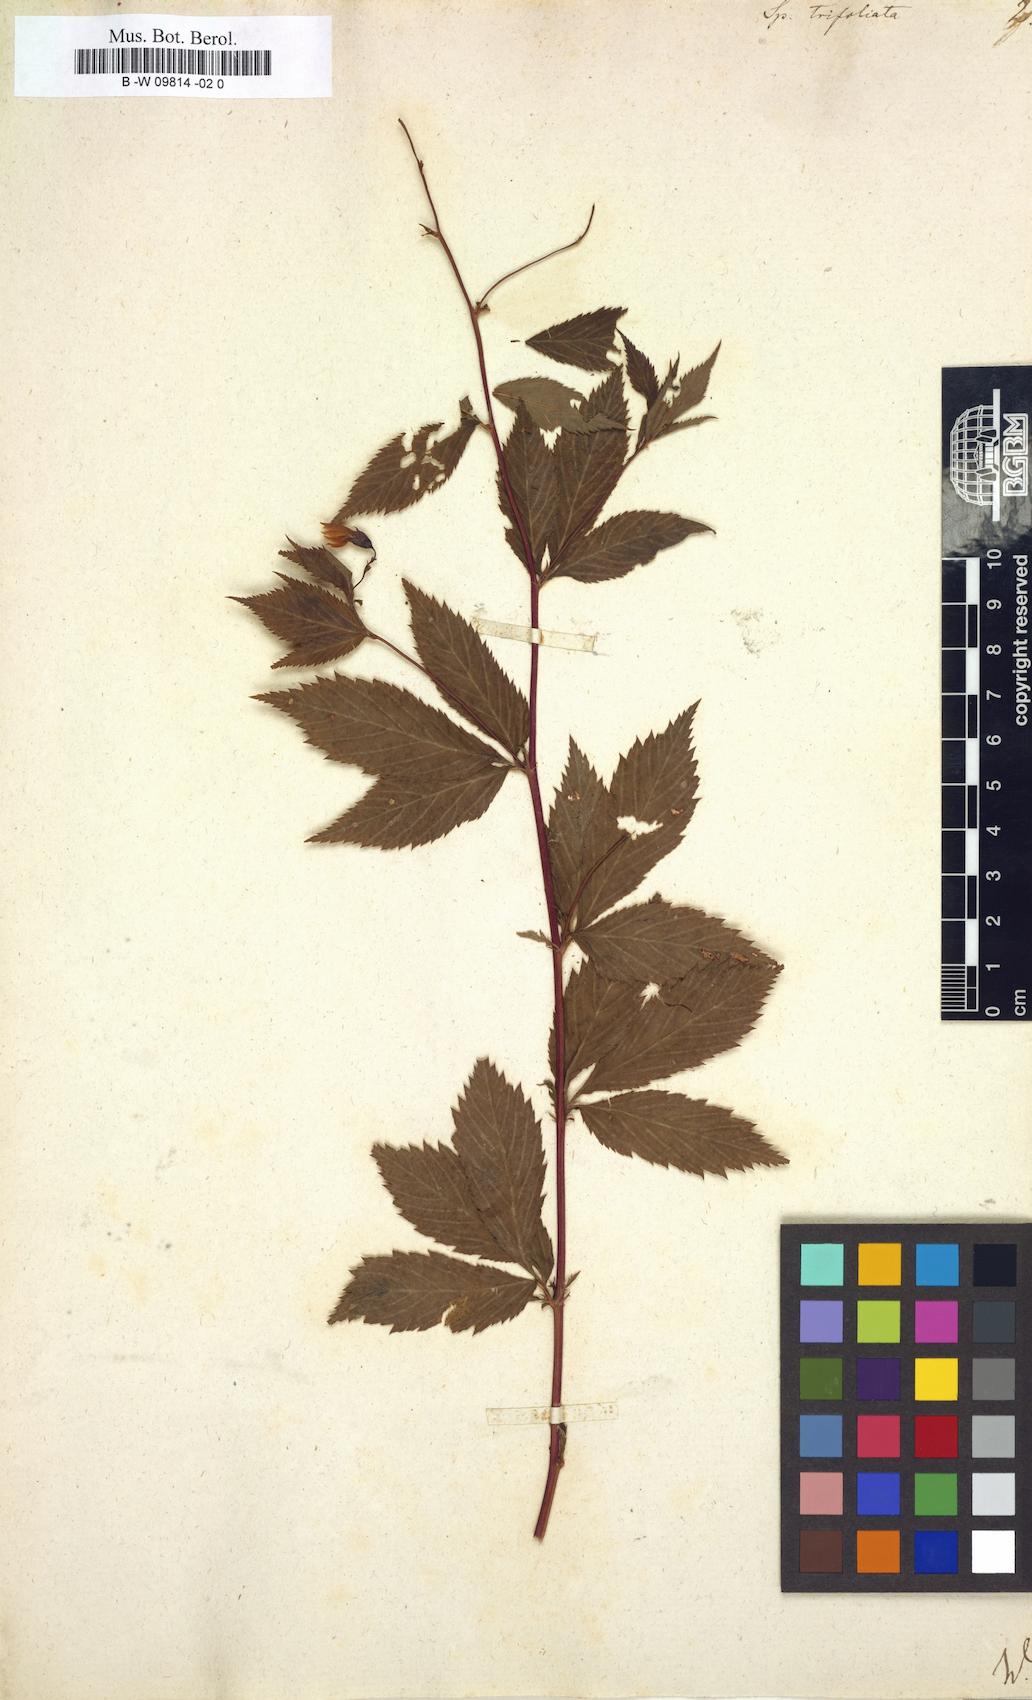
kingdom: Plantae
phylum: Tracheophyta
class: Magnoliopsida
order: Rosales
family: Rosaceae
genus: Gillenia
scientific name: Gillenia trifoliata
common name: Bowman's-root
